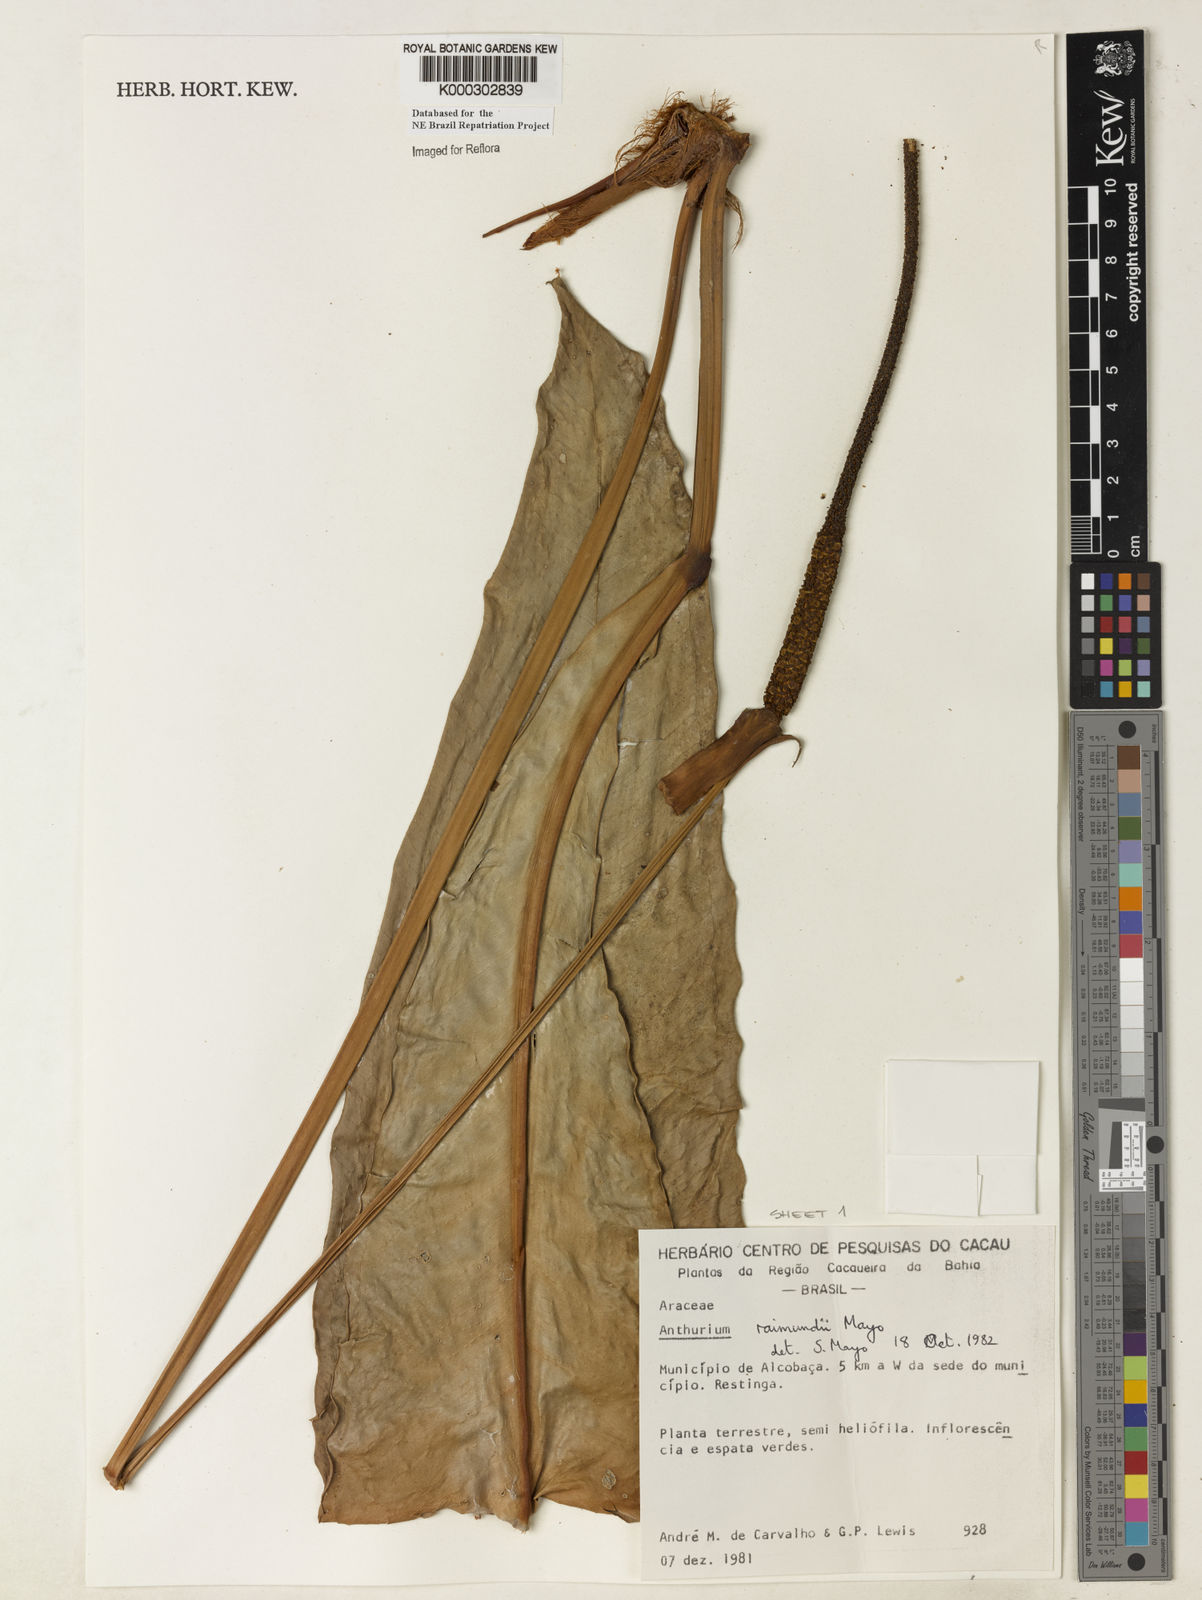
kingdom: Plantae
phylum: Tracheophyta
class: Liliopsida
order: Alismatales
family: Araceae
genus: Anthurium
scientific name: Anthurium raimundii
